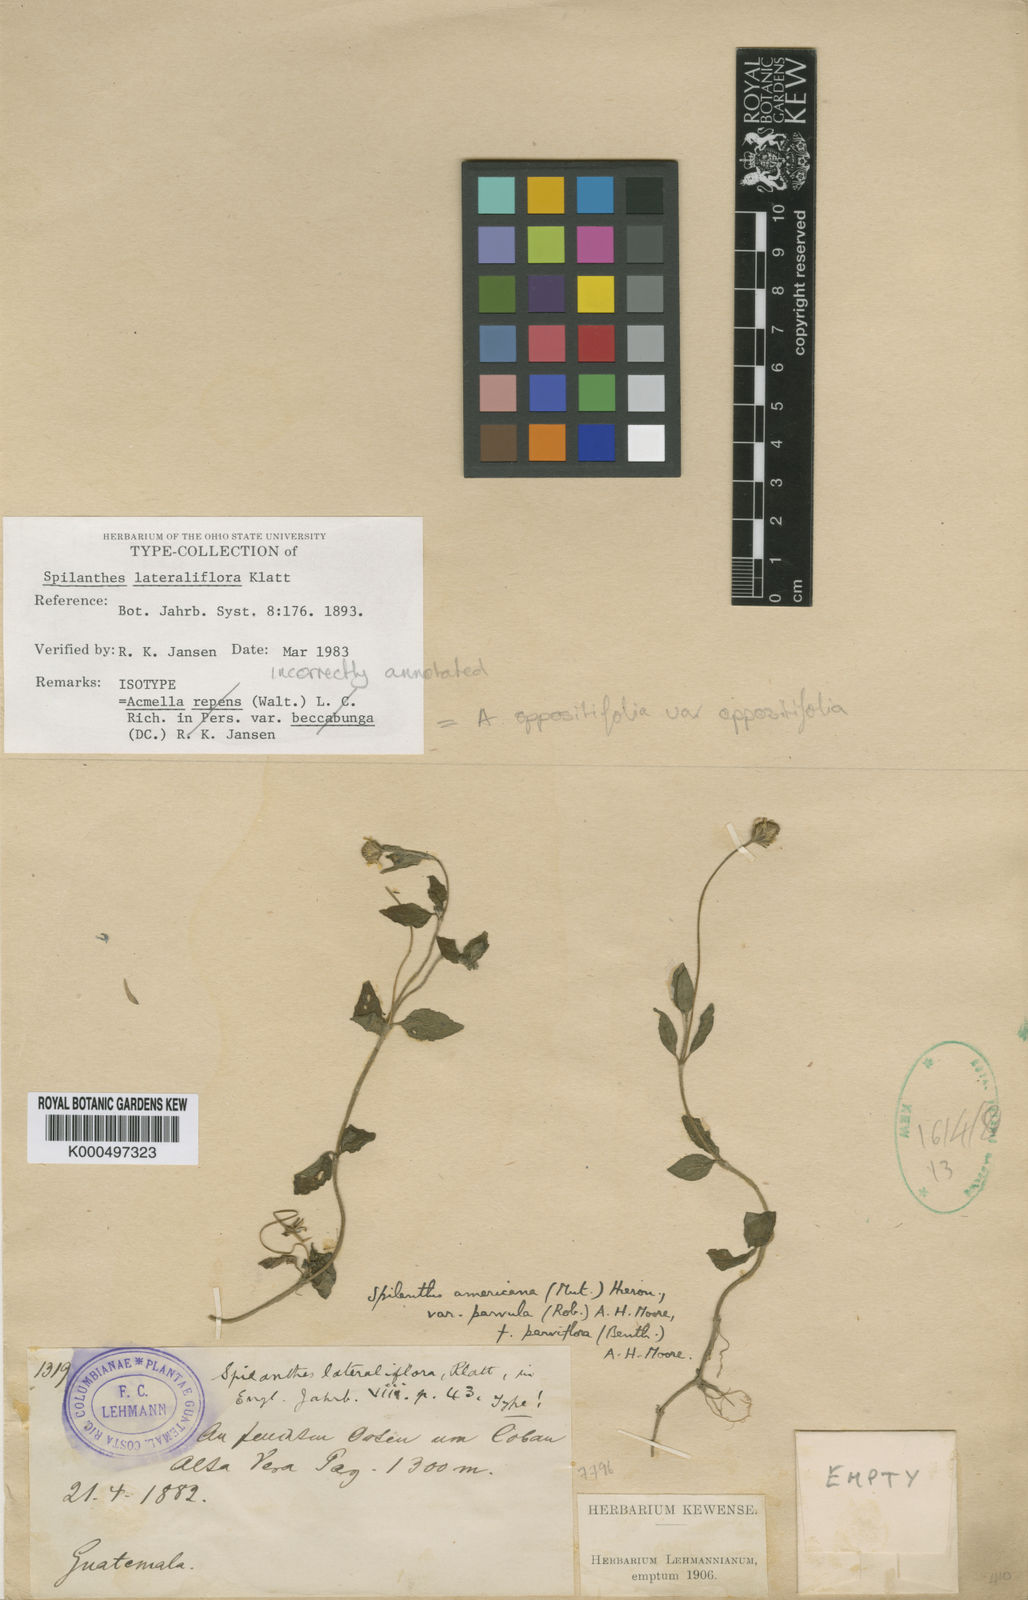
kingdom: Plantae
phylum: Tracheophyta
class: Magnoliopsida
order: Asterales
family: Asteraceae
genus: Heliopsis
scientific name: Heliopsis buphthalmoides
